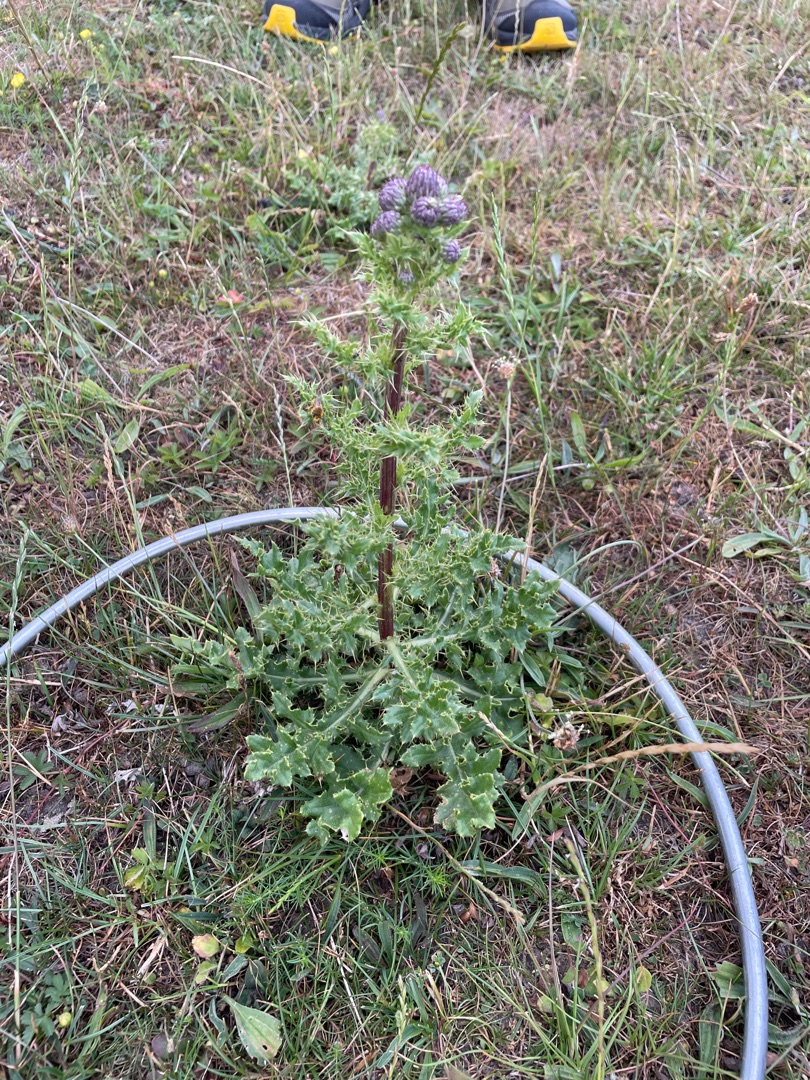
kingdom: Plantae
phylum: Tracheophyta
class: Magnoliopsida
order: Asterales
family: Asteraceae
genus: Cirsium
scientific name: Cirsium arvense
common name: Ager-tidsel
